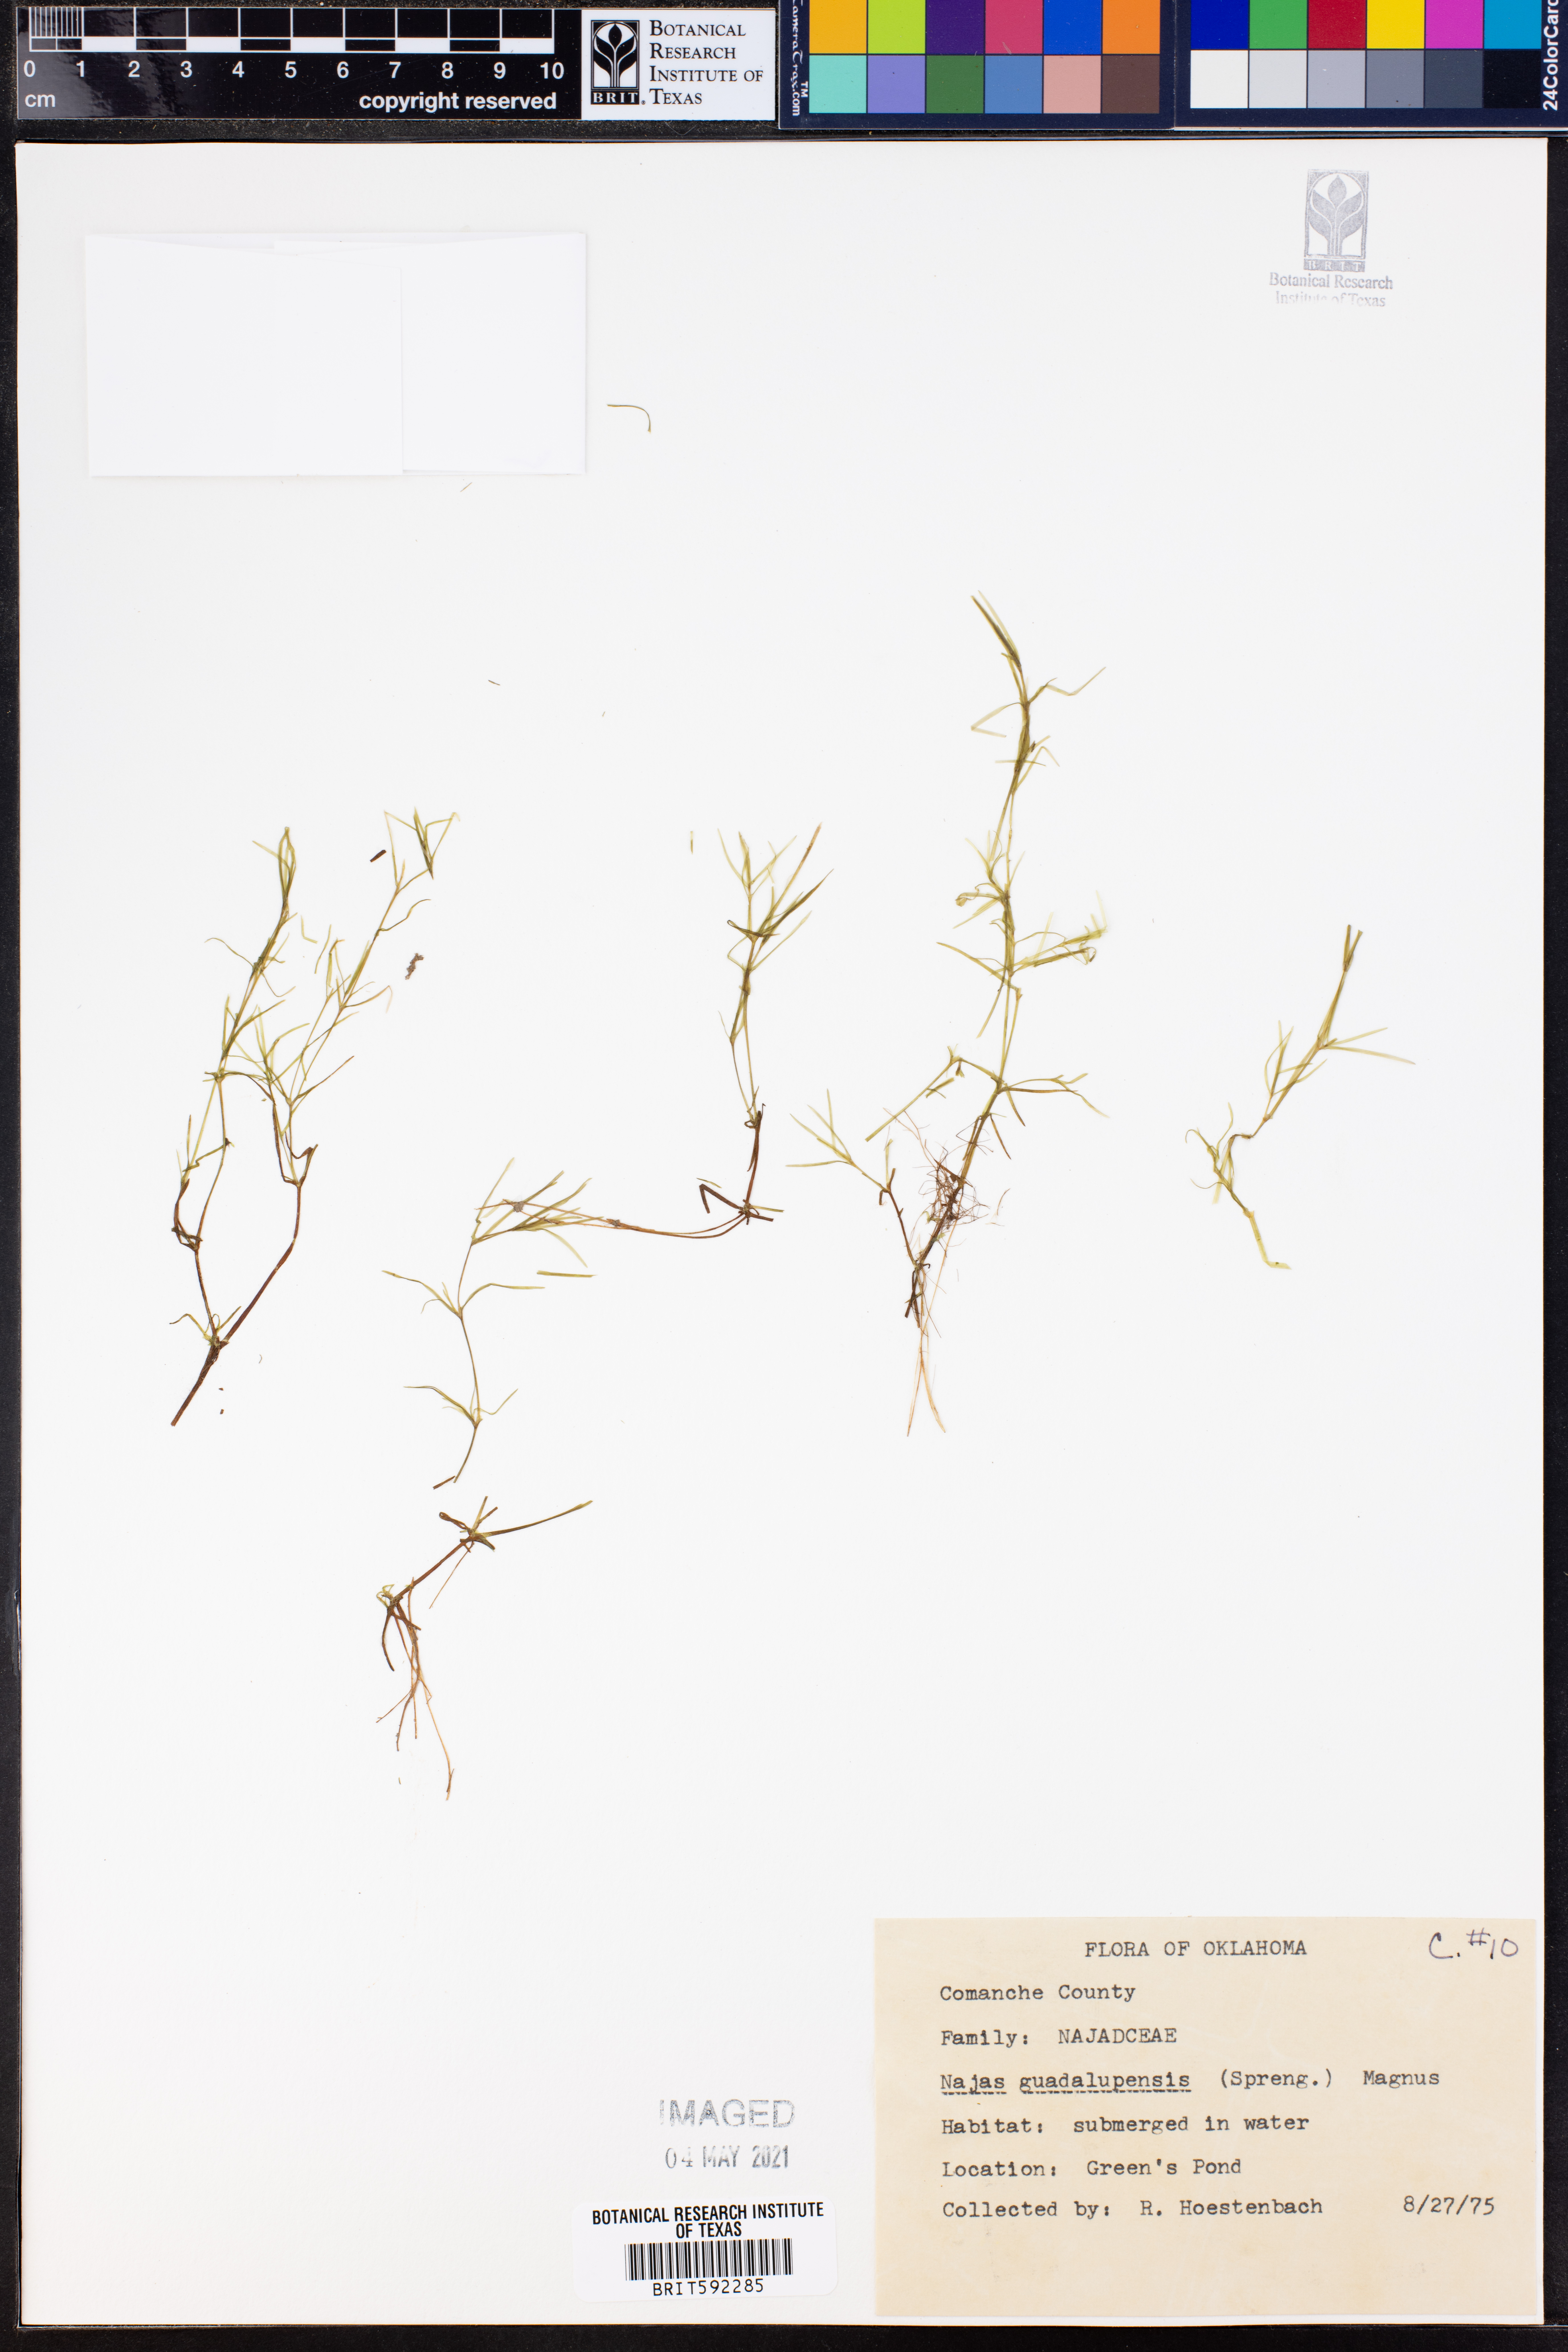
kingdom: Plantae
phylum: Tracheophyta
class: Liliopsida
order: Alismatales
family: Hydrocharitaceae
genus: Najas
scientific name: Najas guadalupensis
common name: Southern naiad
